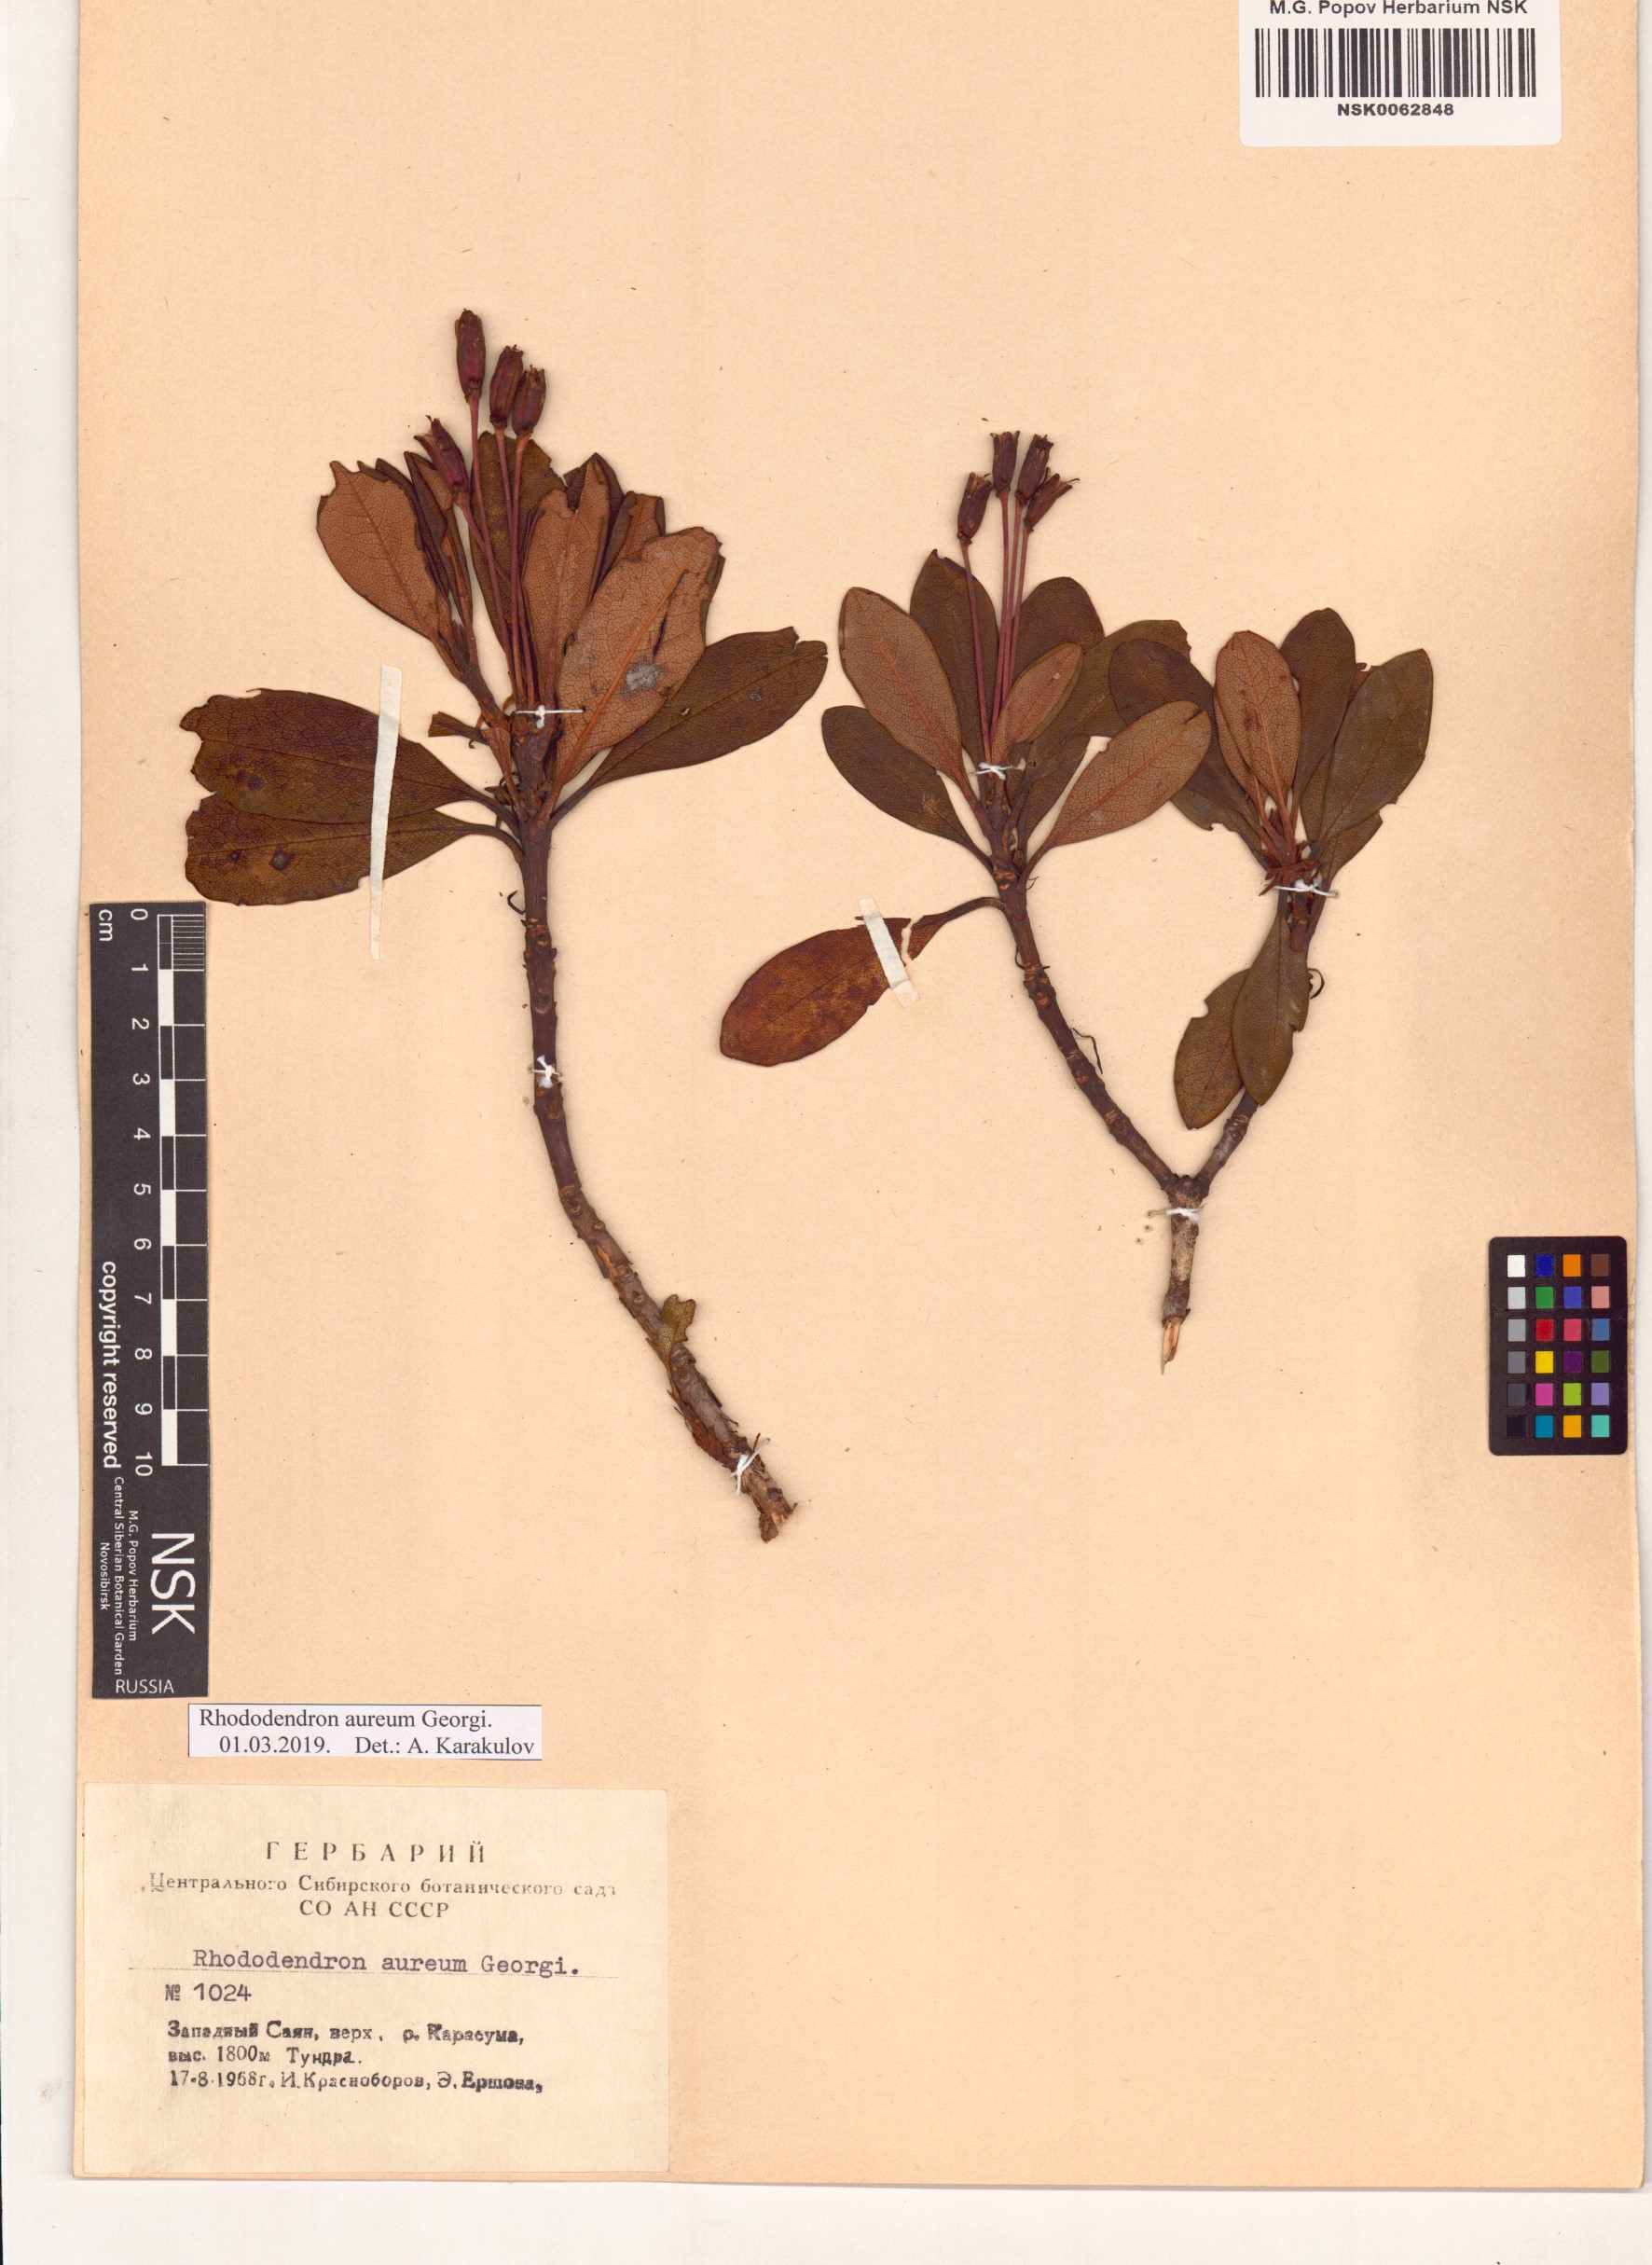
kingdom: Plantae
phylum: Tracheophyta
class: Magnoliopsida
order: Ericales
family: Ericaceae
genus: Rhododendron
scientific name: Rhododendron aureum
